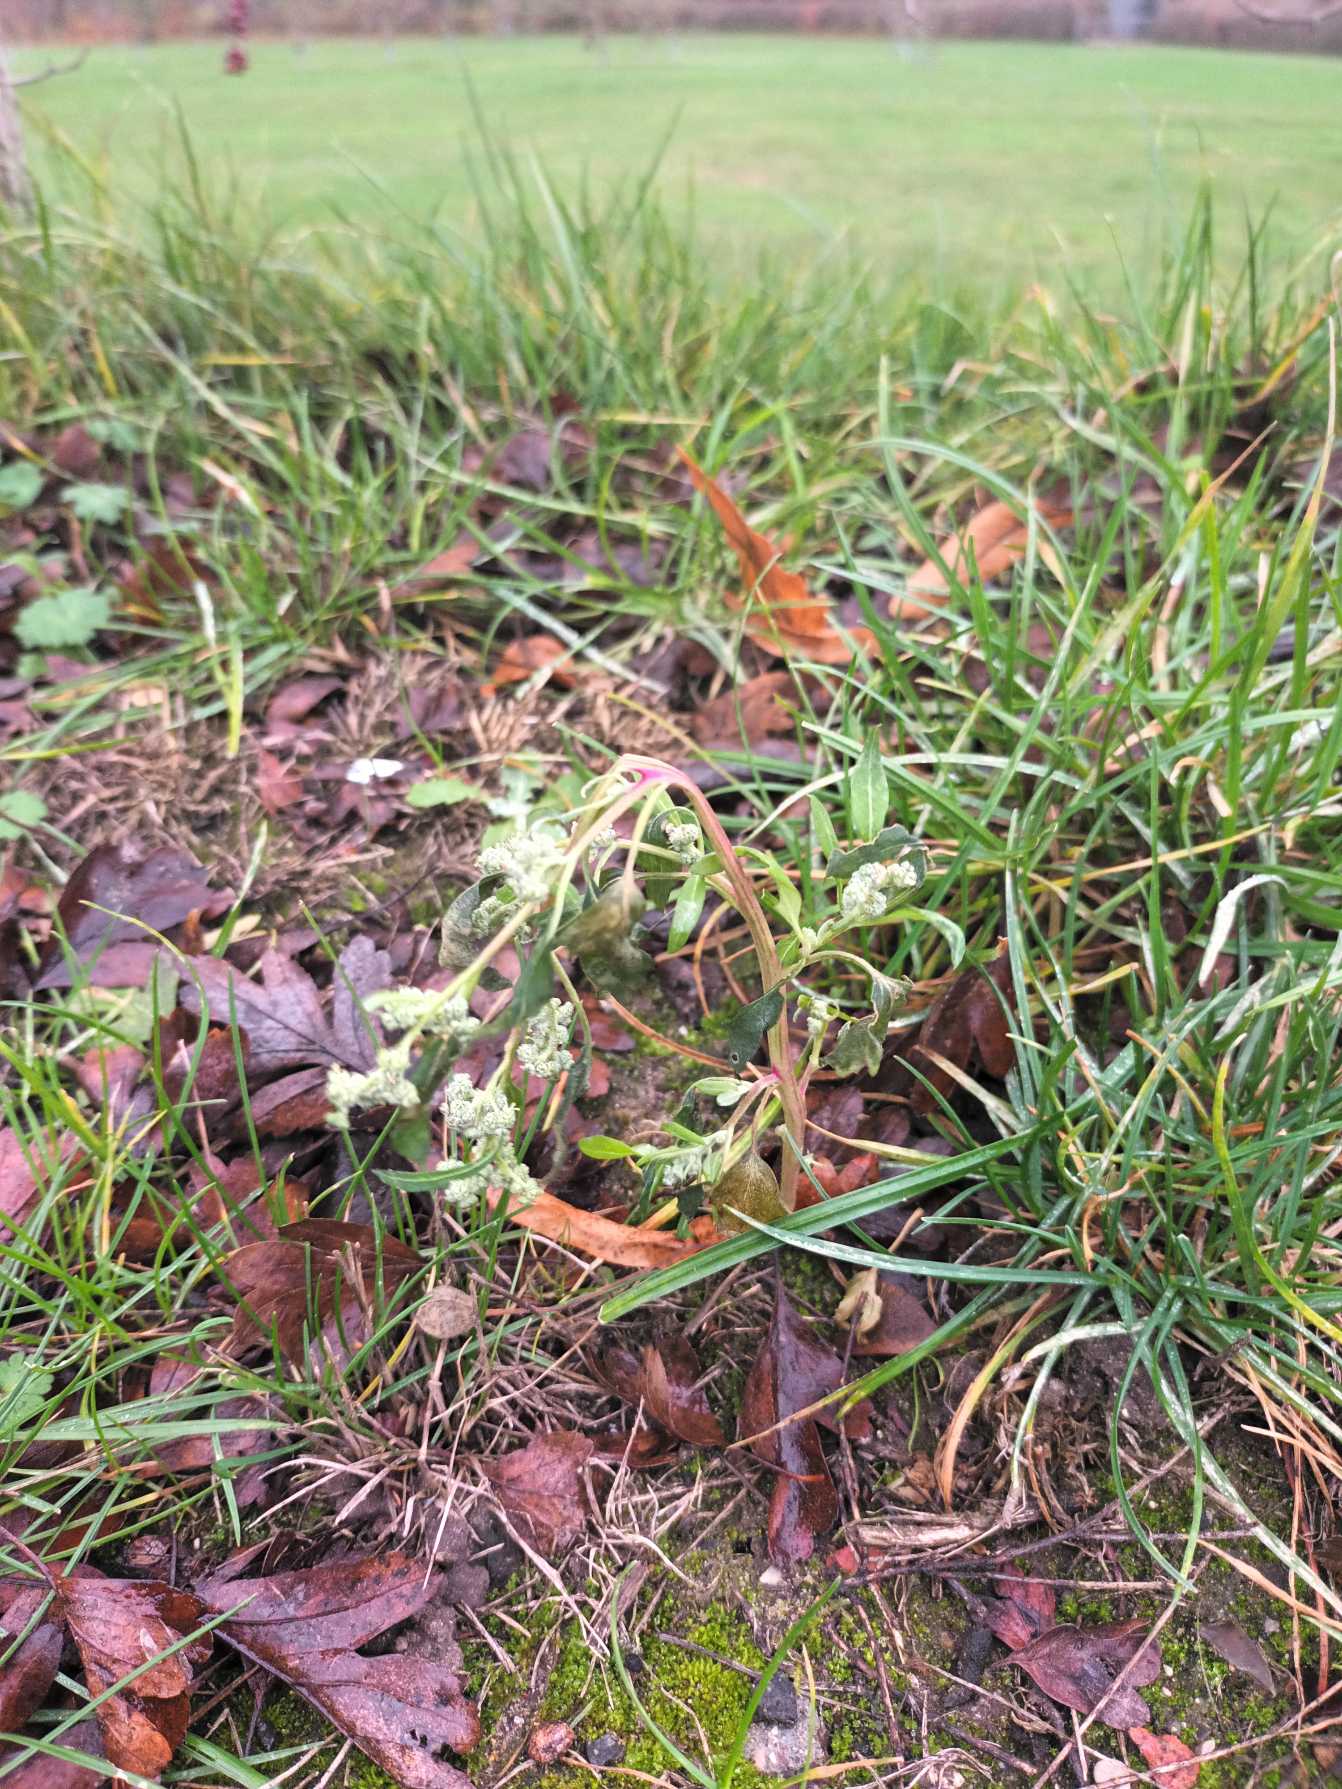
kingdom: Plantae
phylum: Tracheophyta
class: Magnoliopsida
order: Caryophyllales
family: Amaranthaceae
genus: Chenopodium
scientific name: Chenopodium album
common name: Hvidmelet gåsefod
